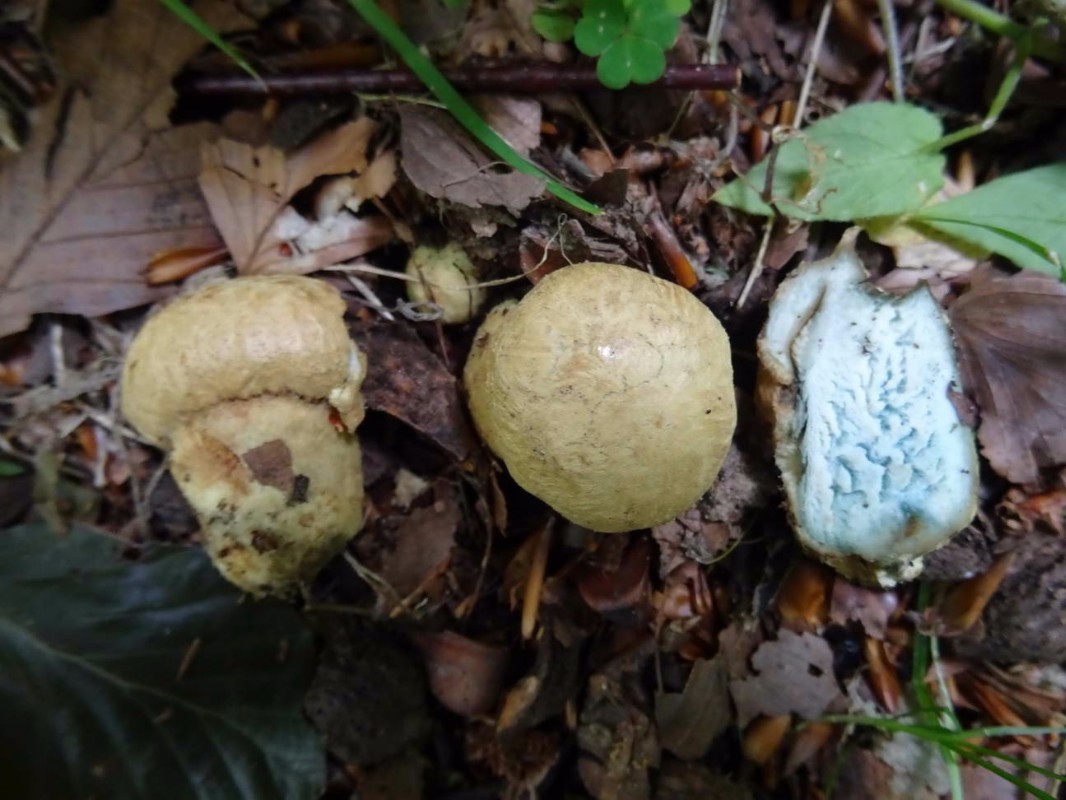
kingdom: Fungi
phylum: Basidiomycota
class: Agaricomycetes
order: Boletales
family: Gyroporaceae
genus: Gyroporus
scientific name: Gyroporus cyanescens
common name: blånende kammerrørhat
